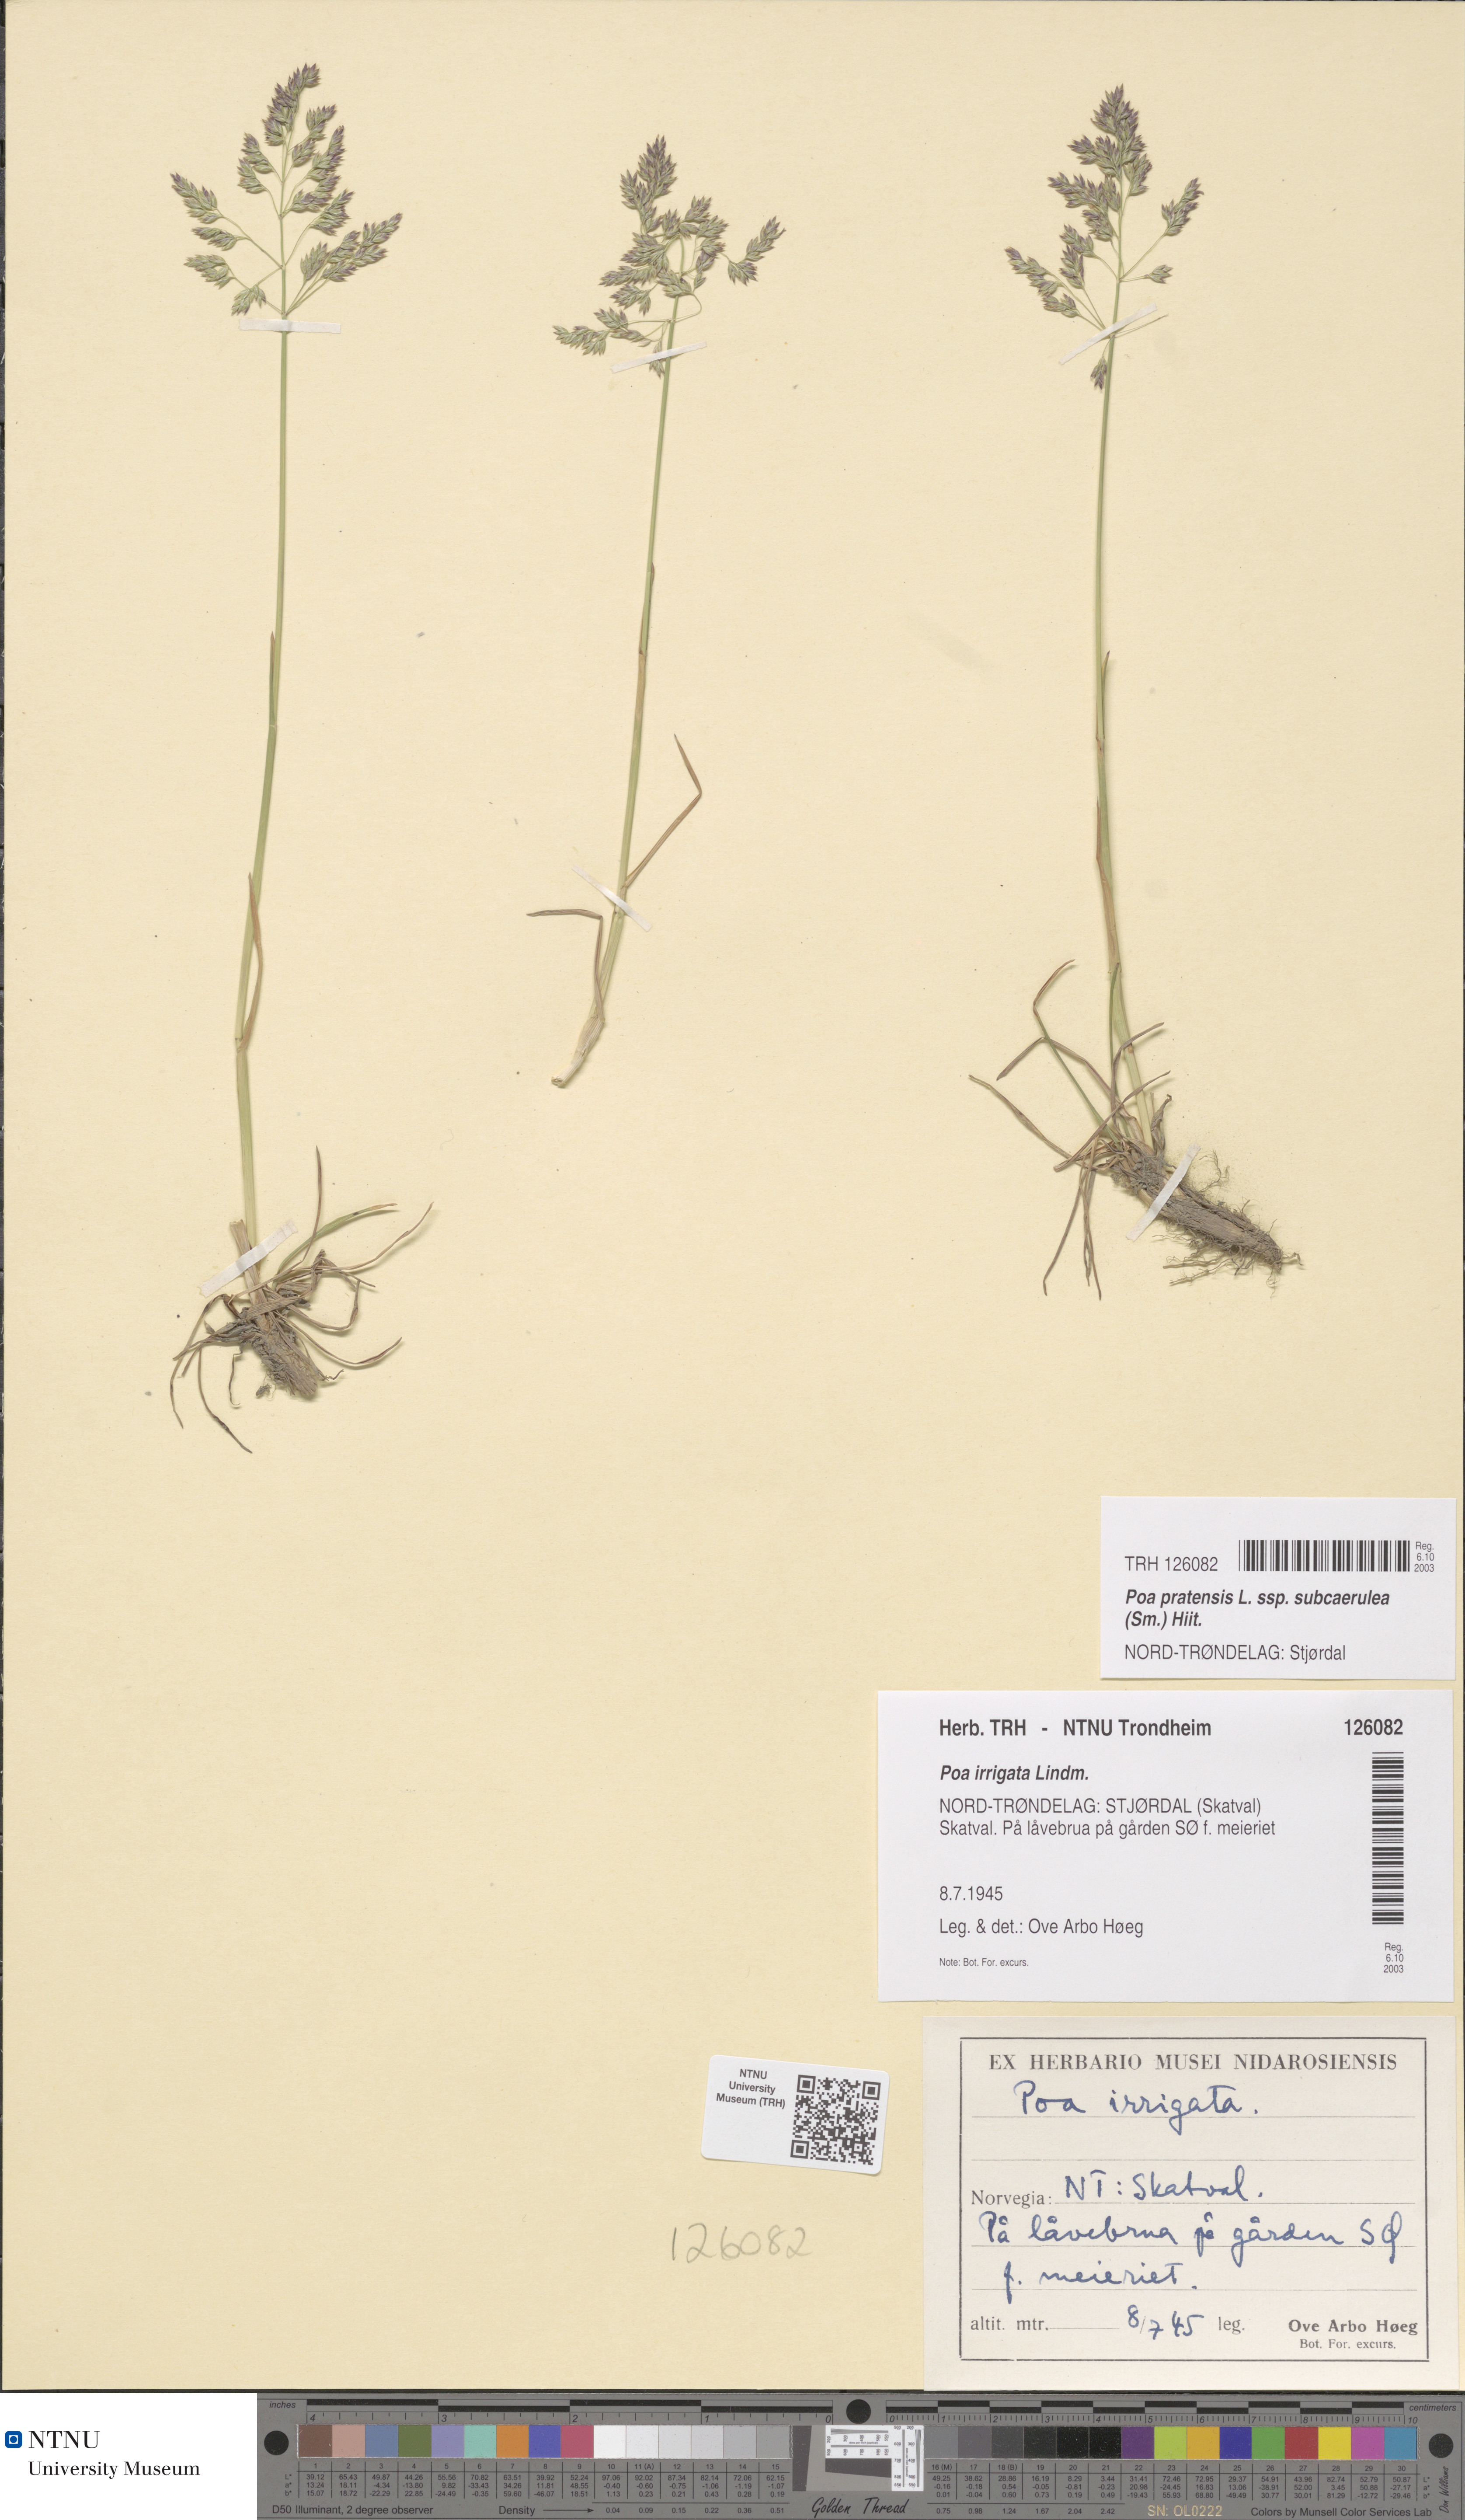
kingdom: Plantae
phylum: Tracheophyta
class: Liliopsida
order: Poales
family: Poaceae
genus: Poa
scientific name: Poa humilis
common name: Spreading meadow-grass
